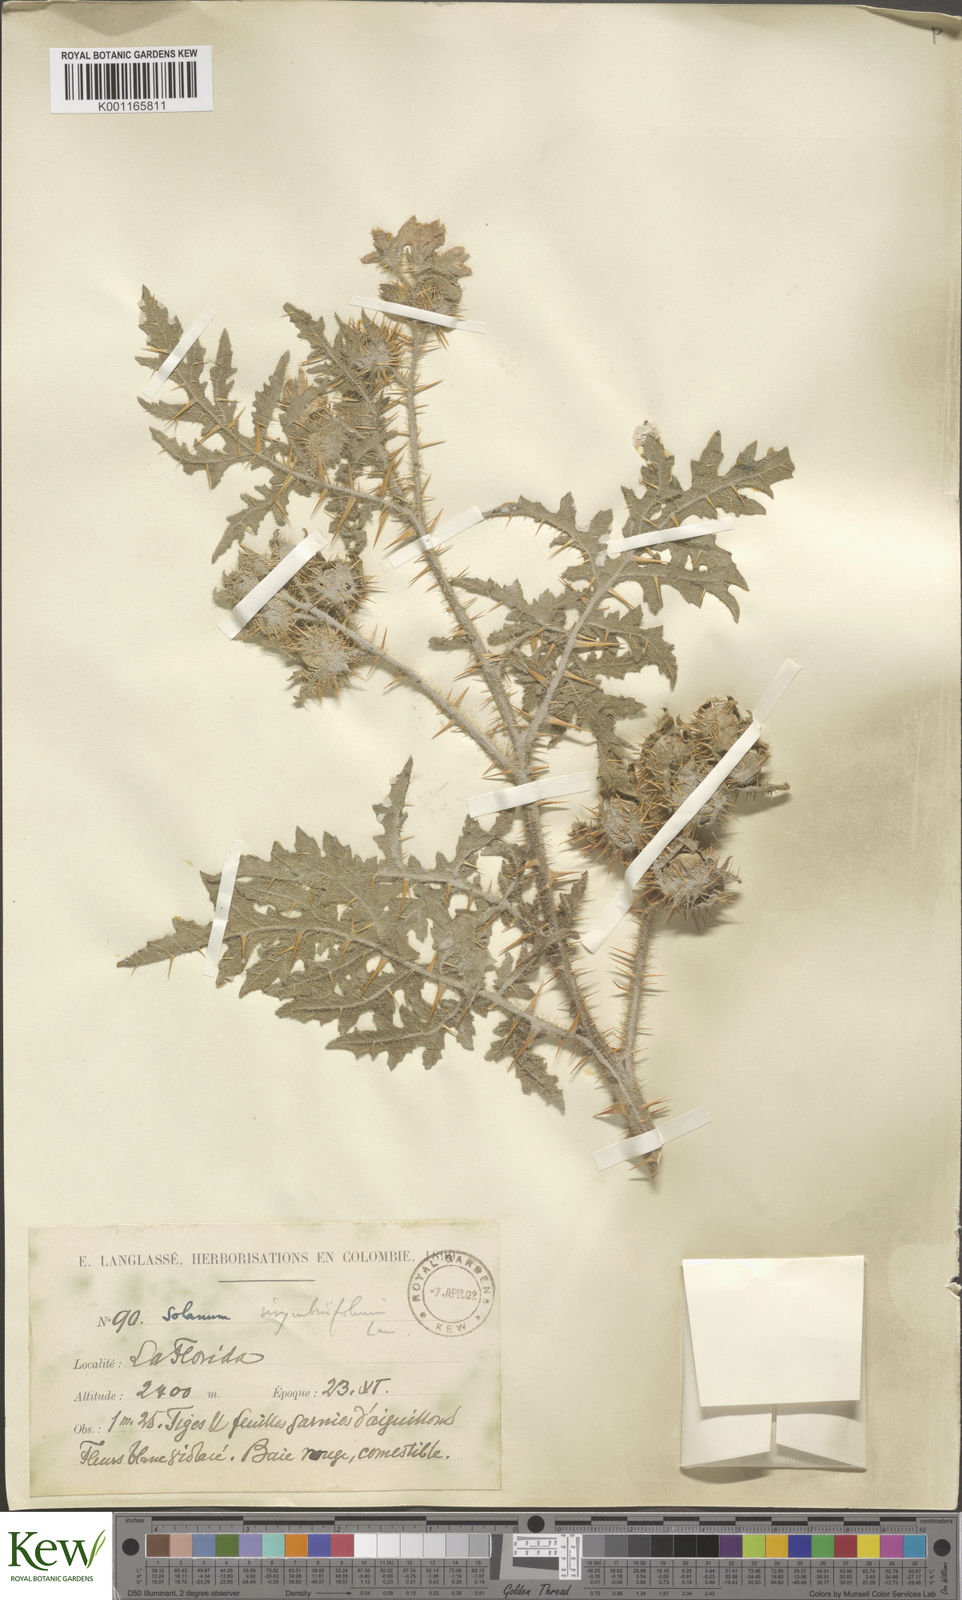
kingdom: Plantae
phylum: Tracheophyta
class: Magnoliopsida
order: Solanales
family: Solanaceae
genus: Solanum
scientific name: Solanum sisymbriifolium
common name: Red buffalo-bur
